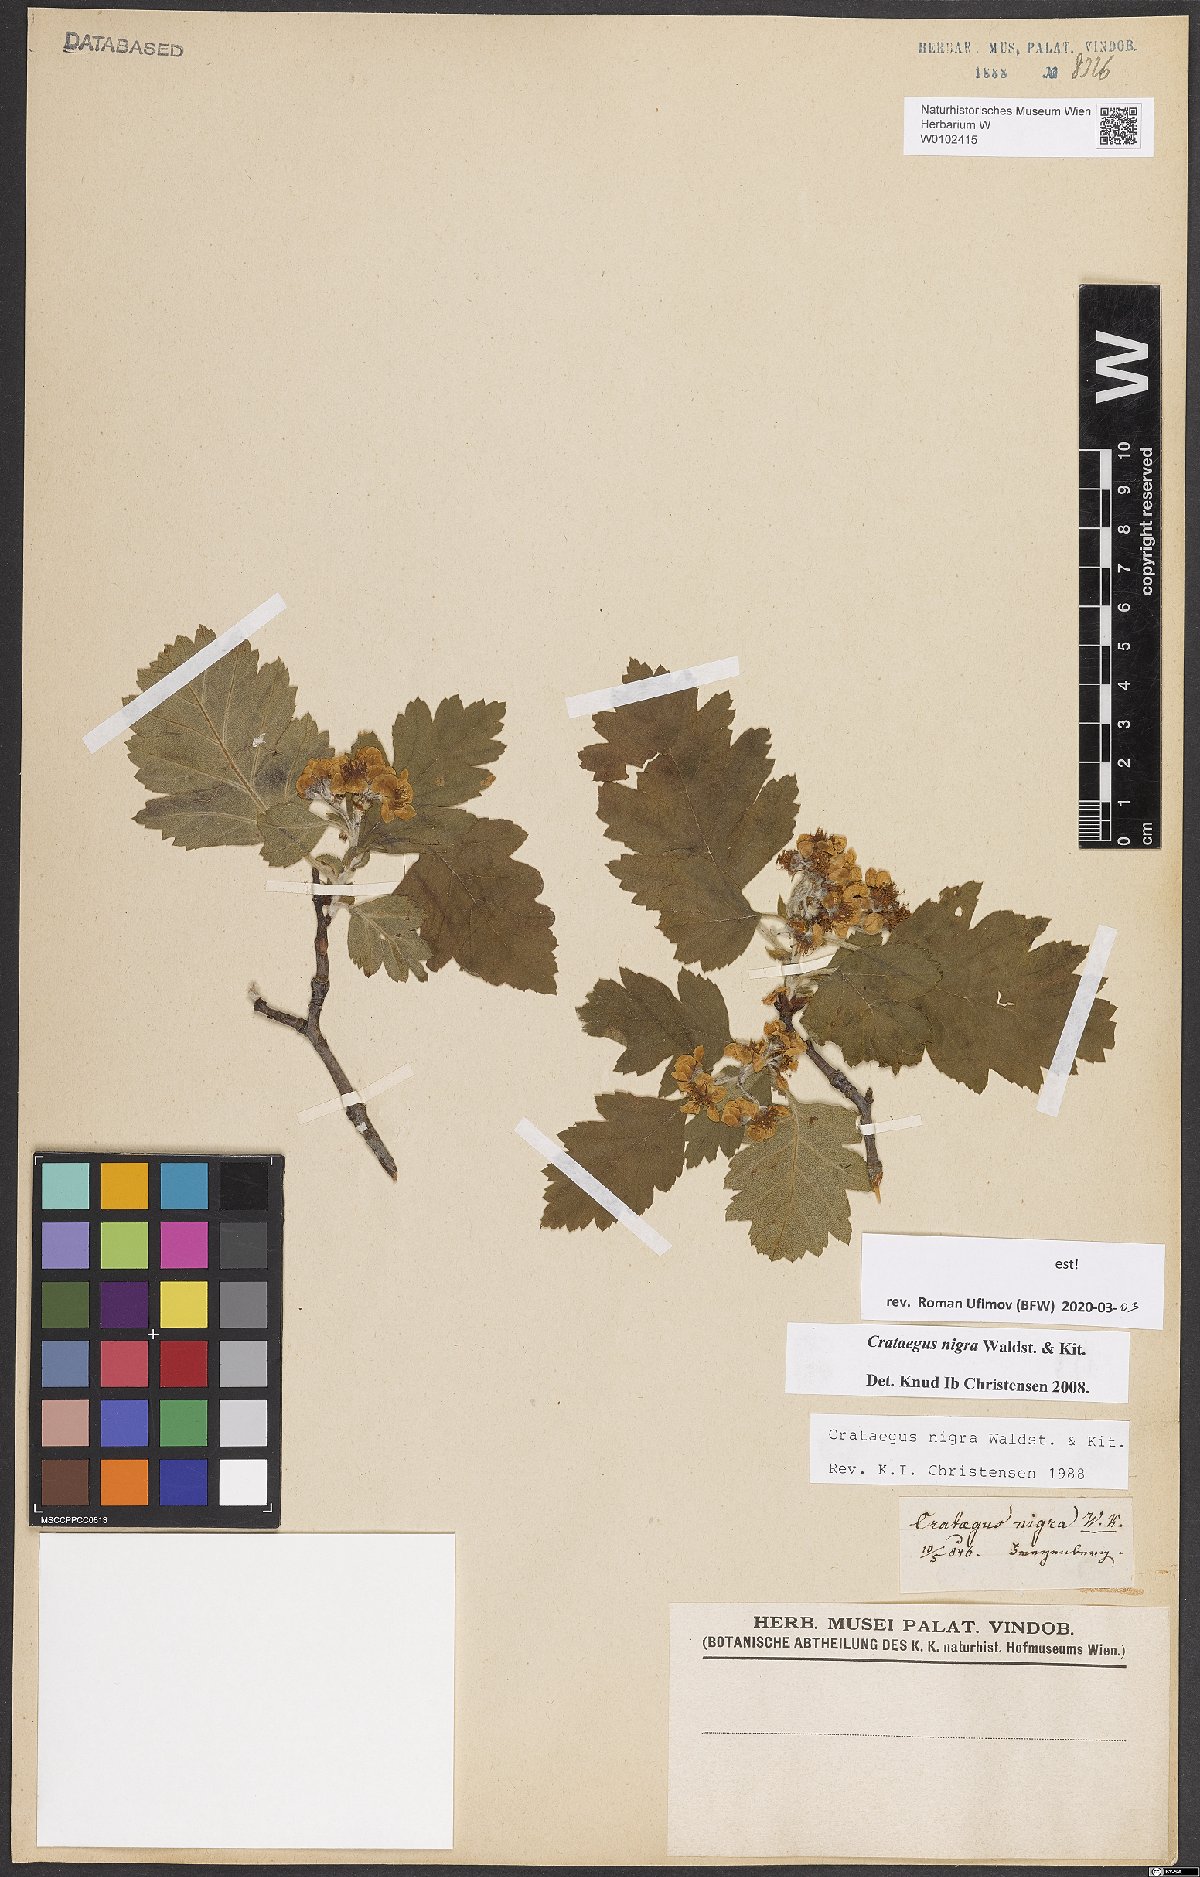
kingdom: Plantae
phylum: Tracheophyta
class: Magnoliopsida
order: Rosales
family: Rosaceae
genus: Crataegus
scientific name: Crataegus nigra
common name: Hungarian thorn
